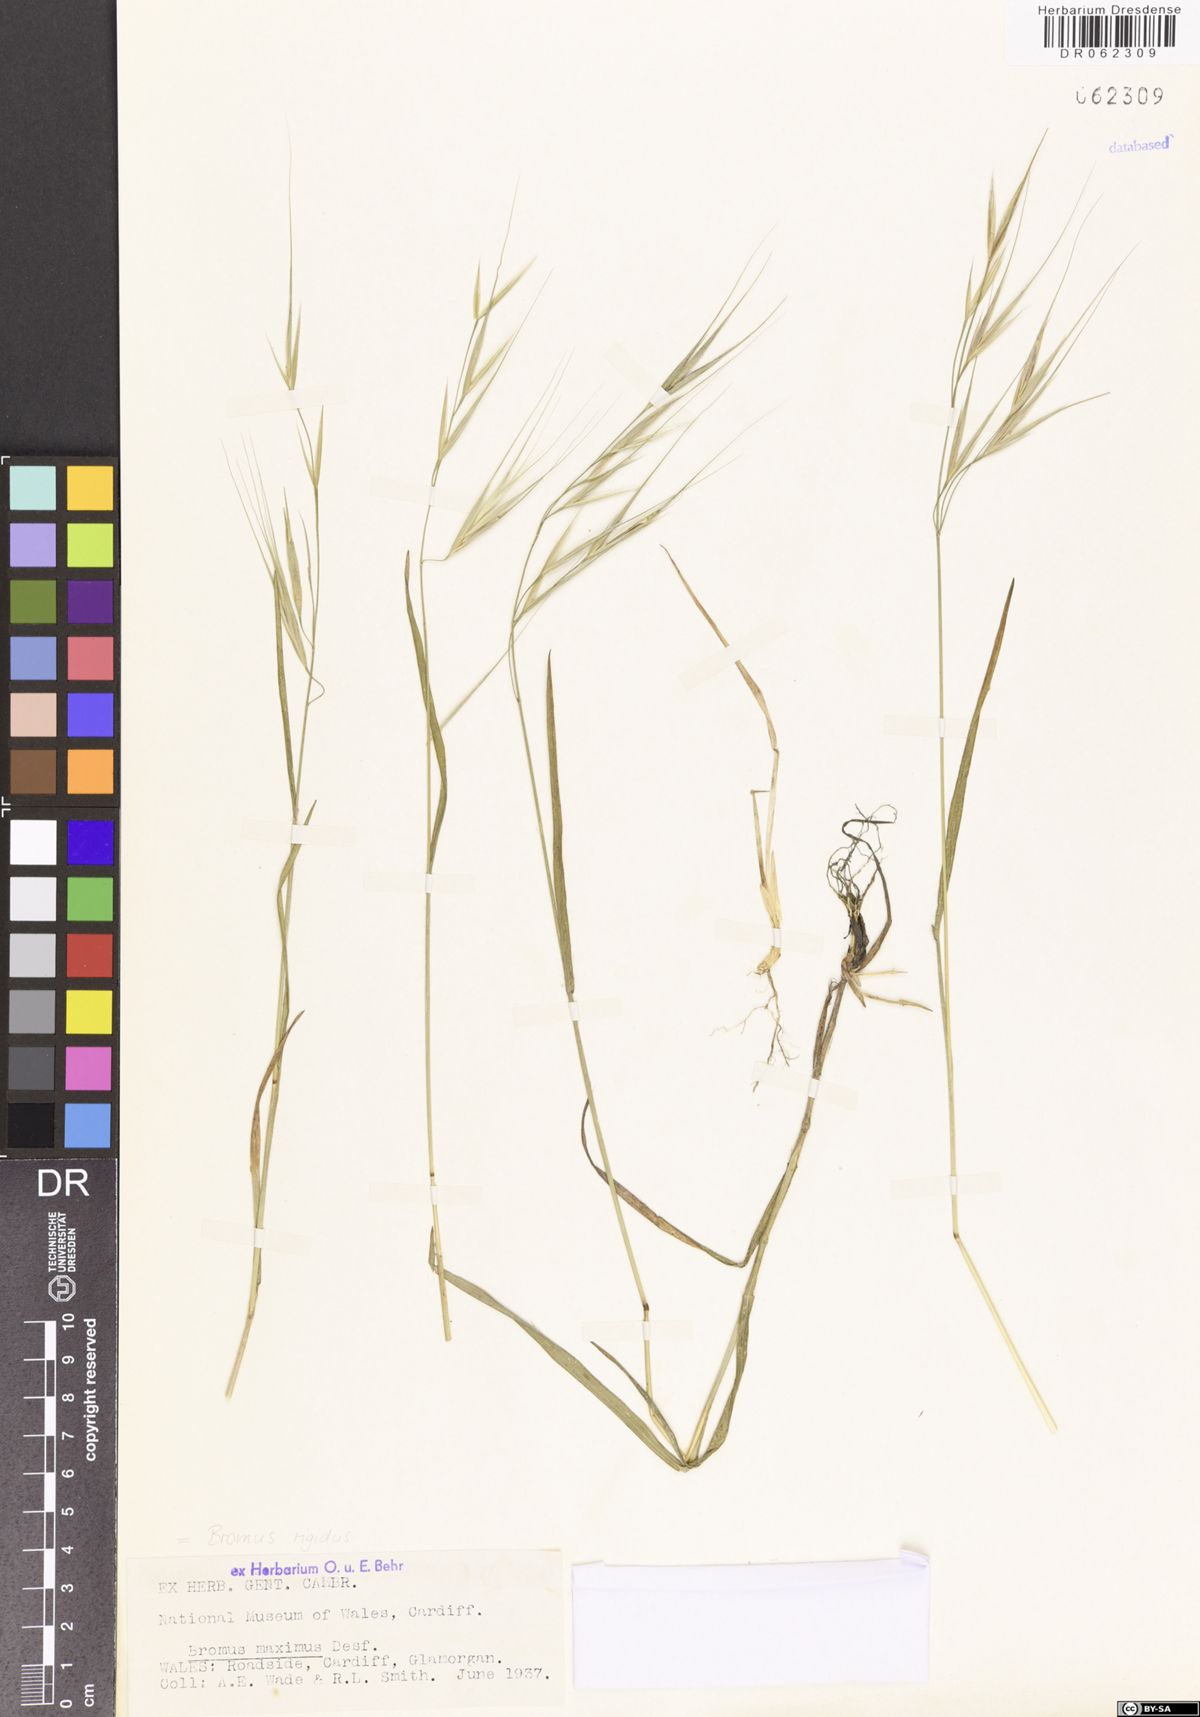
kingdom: Plantae
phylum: Tracheophyta
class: Liliopsida
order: Poales
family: Poaceae
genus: Bromus
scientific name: Bromus rigidus
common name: Ripgut brome
